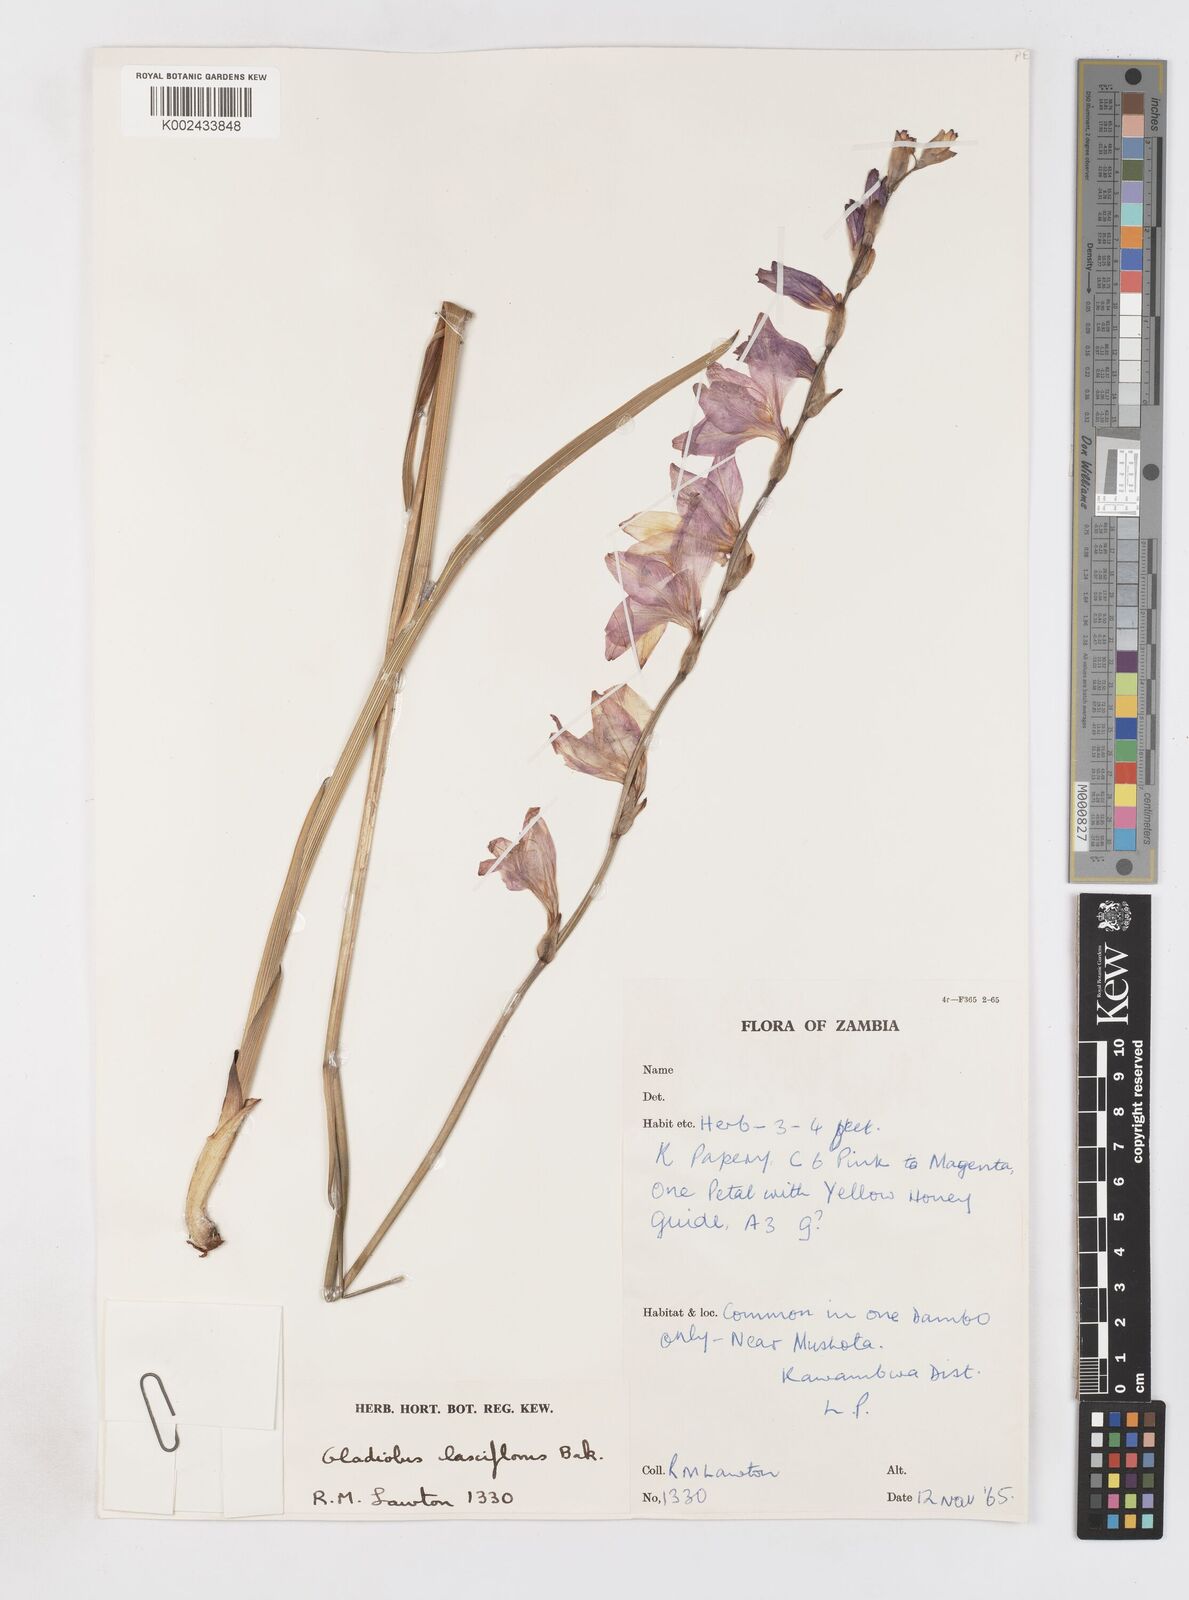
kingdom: Plantae
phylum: Tracheophyta
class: Liliopsida
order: Asparagales
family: Iridaceae
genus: Gladiolus
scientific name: Gladiolus laxiflorus
